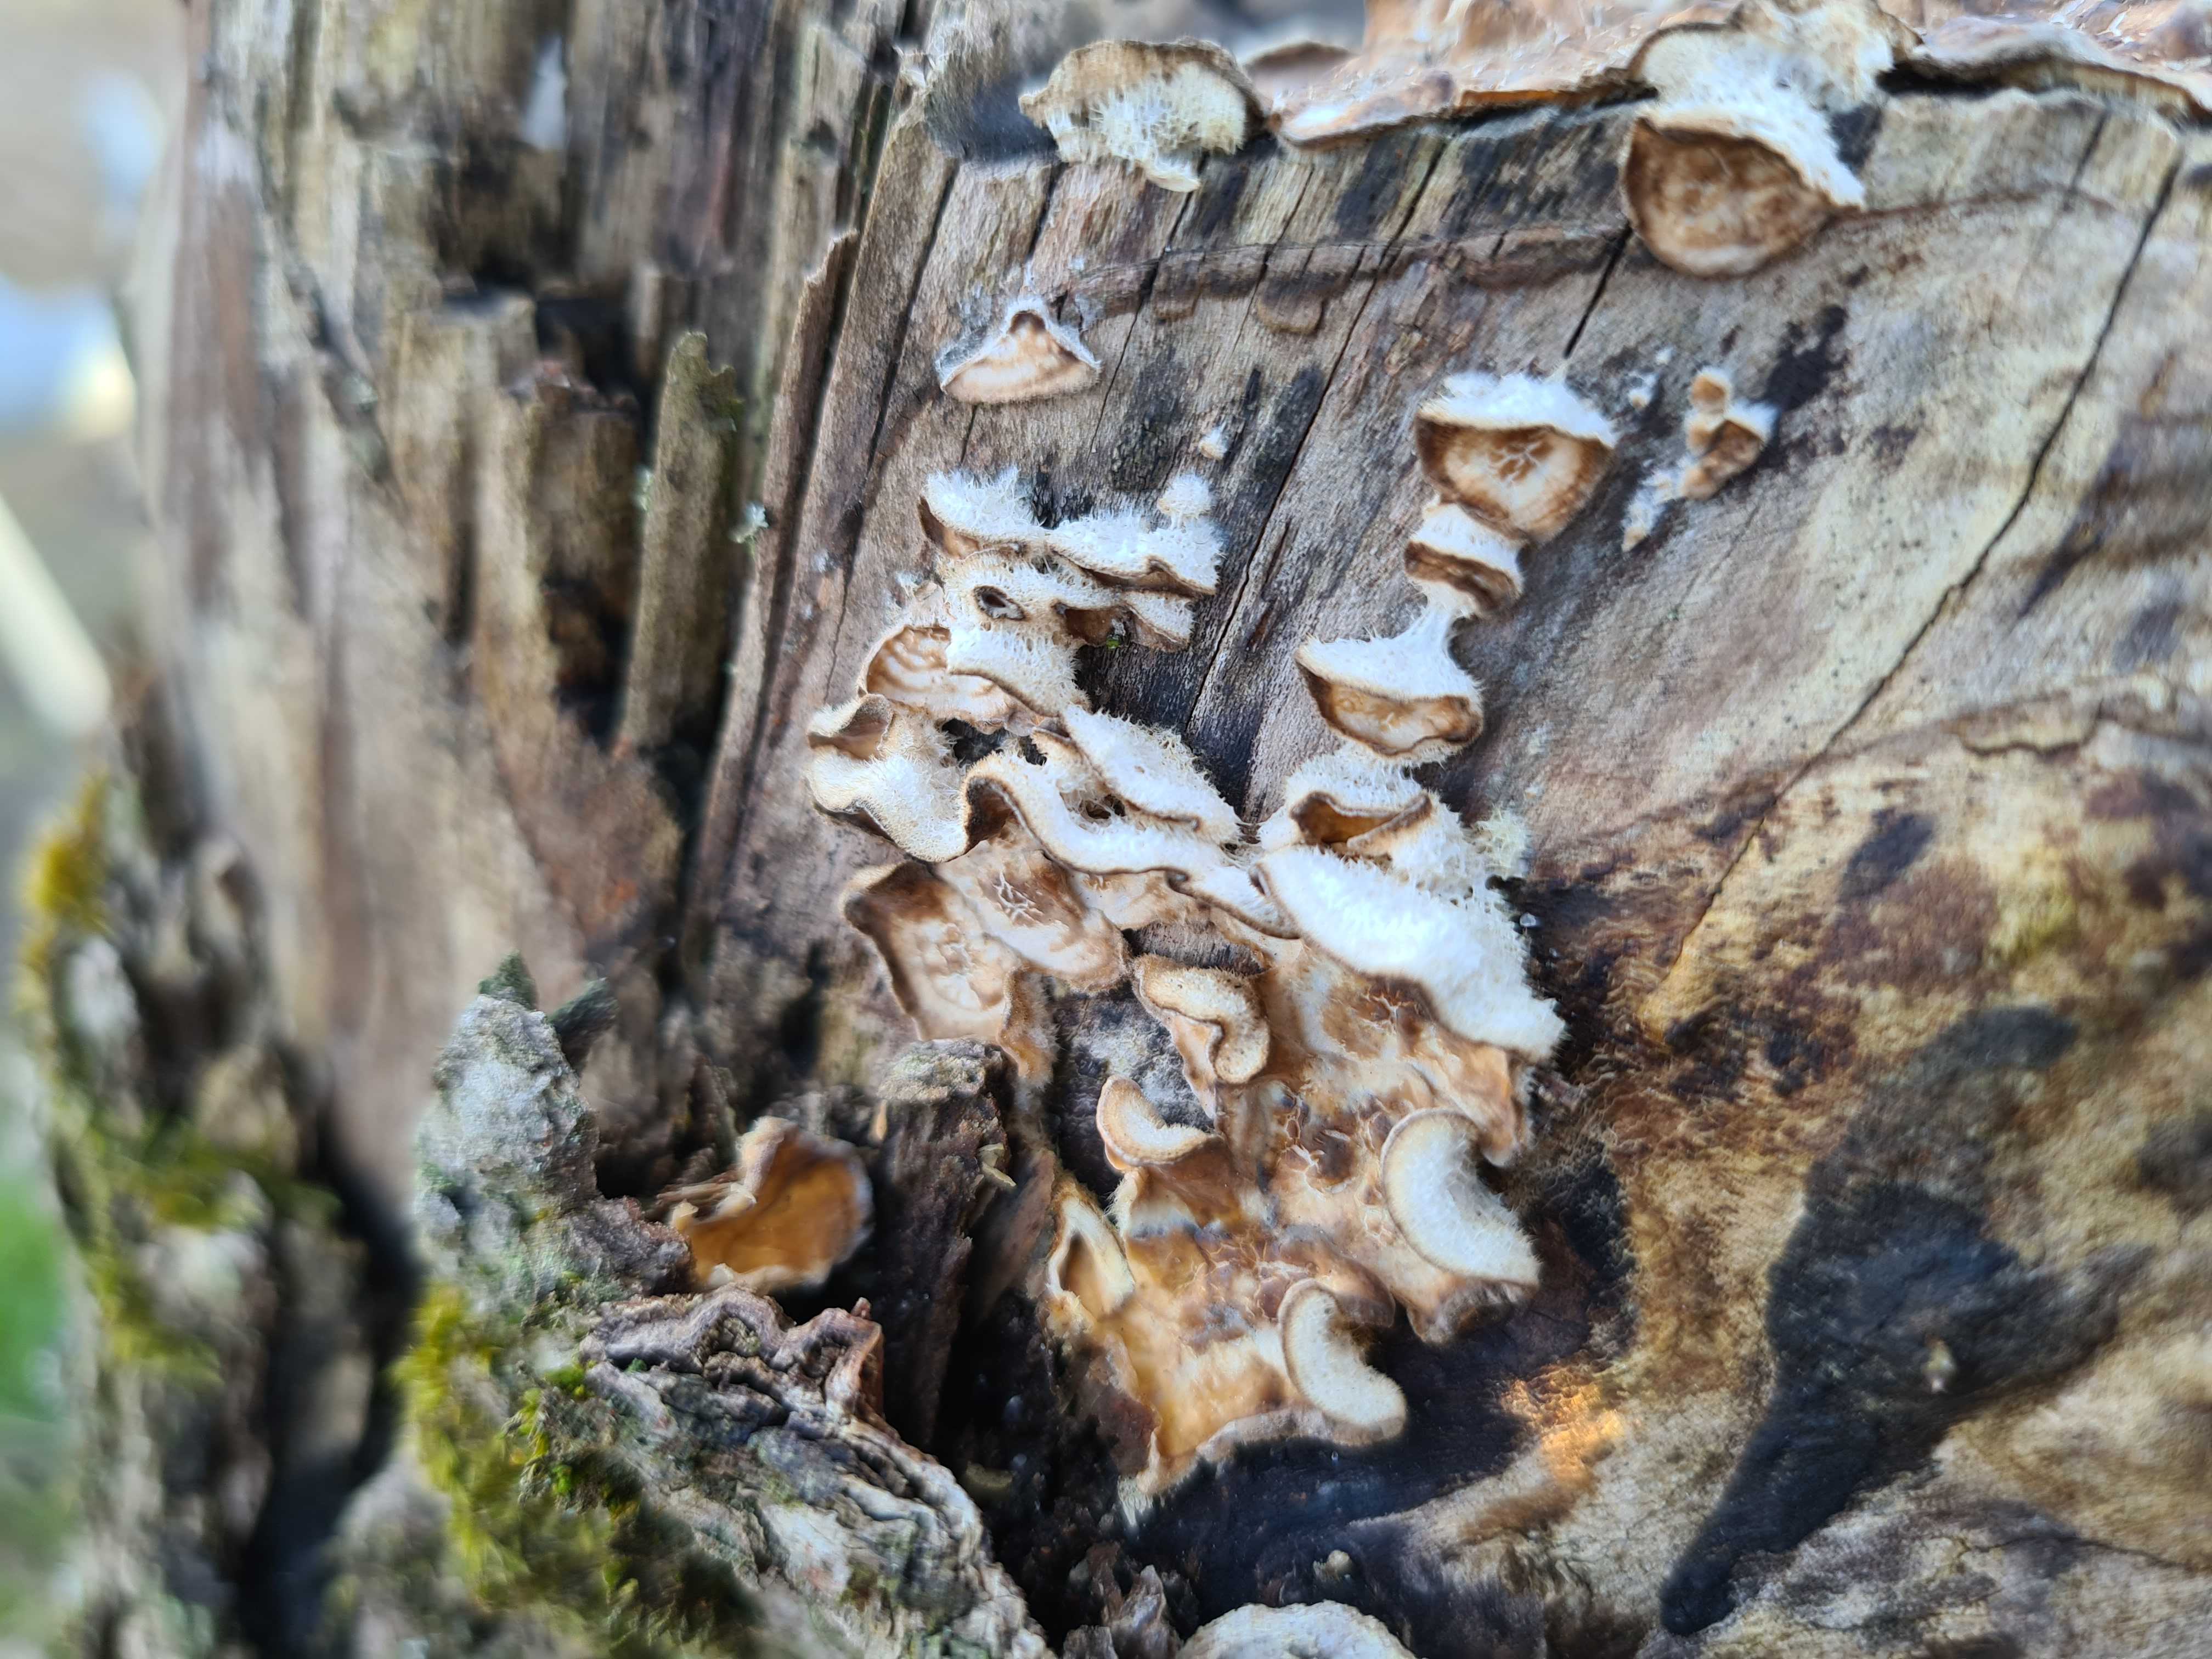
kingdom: Fungi
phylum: Basidiomycota
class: Agaricomycetes
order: Russulales
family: Stereaceae
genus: Stereum
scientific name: Stereum hirsutum
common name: håret lædersvamp
